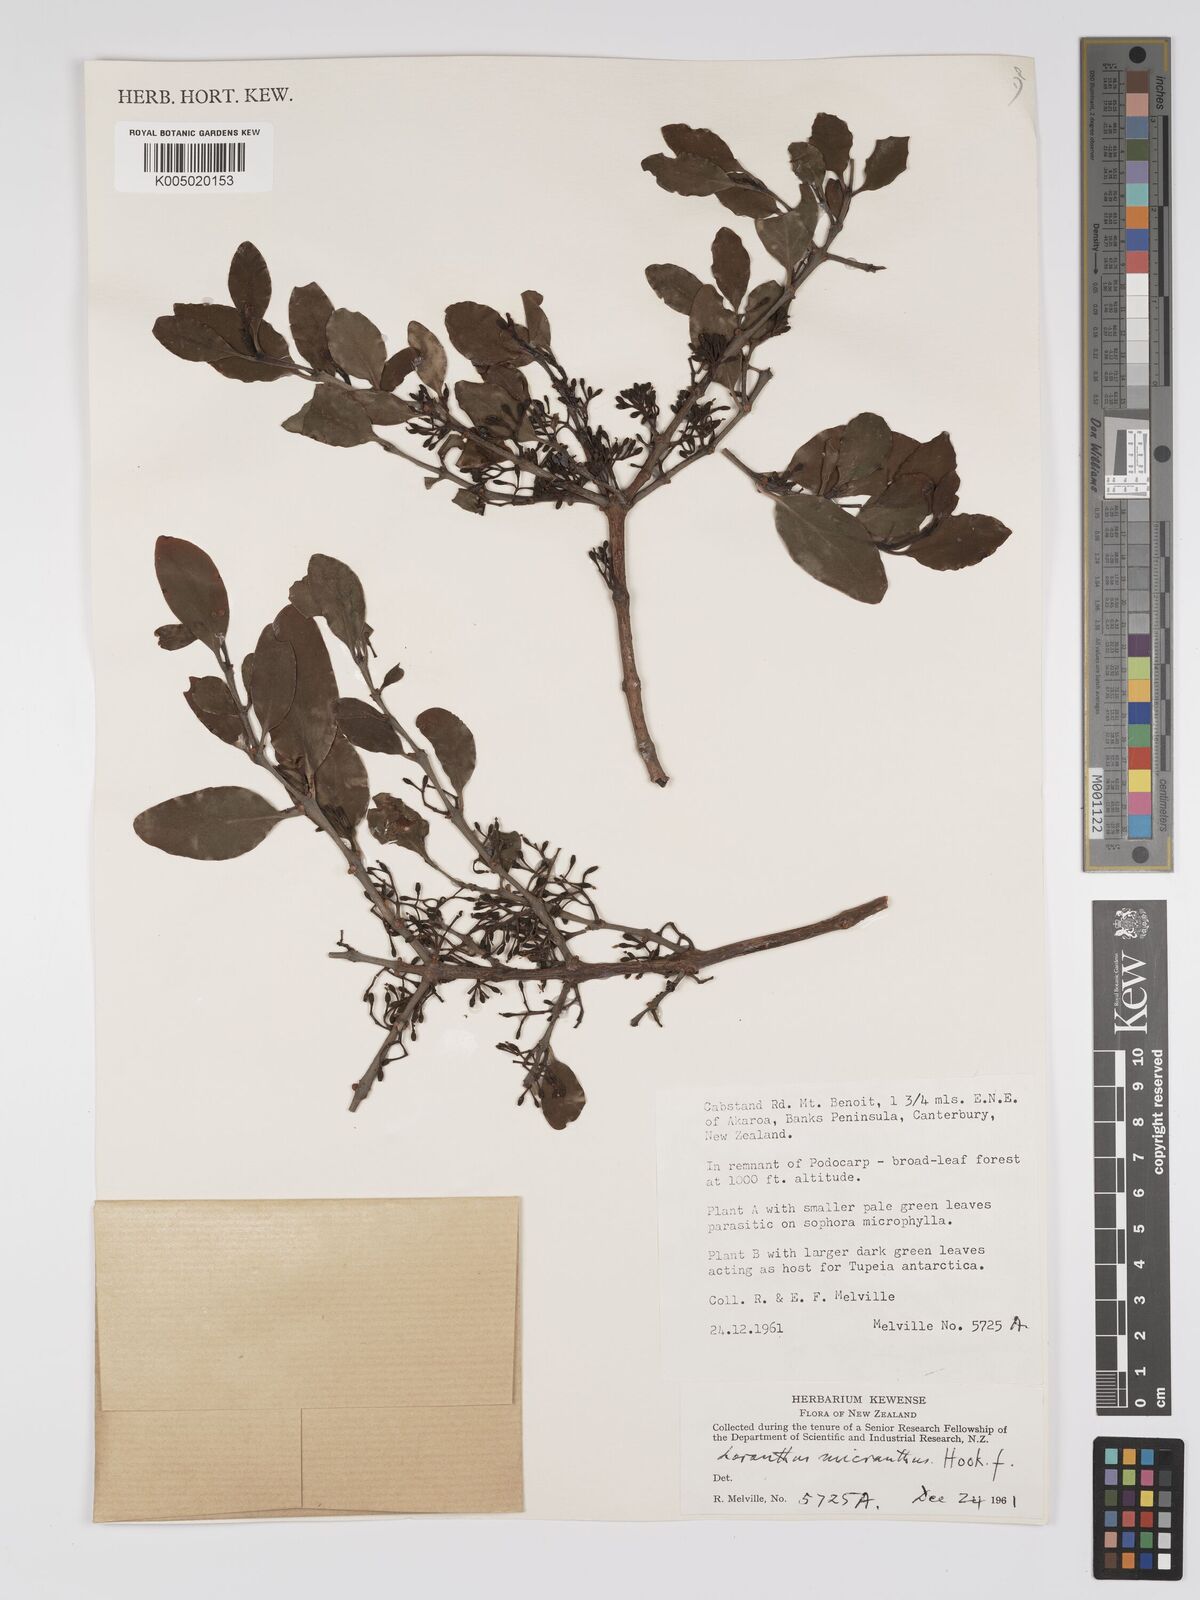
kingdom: Plantae
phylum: Tracheophyta
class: Magnoliopsida
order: Santalales
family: Loranthaceae
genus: Ileostylus
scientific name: Ileostylus micranthus
